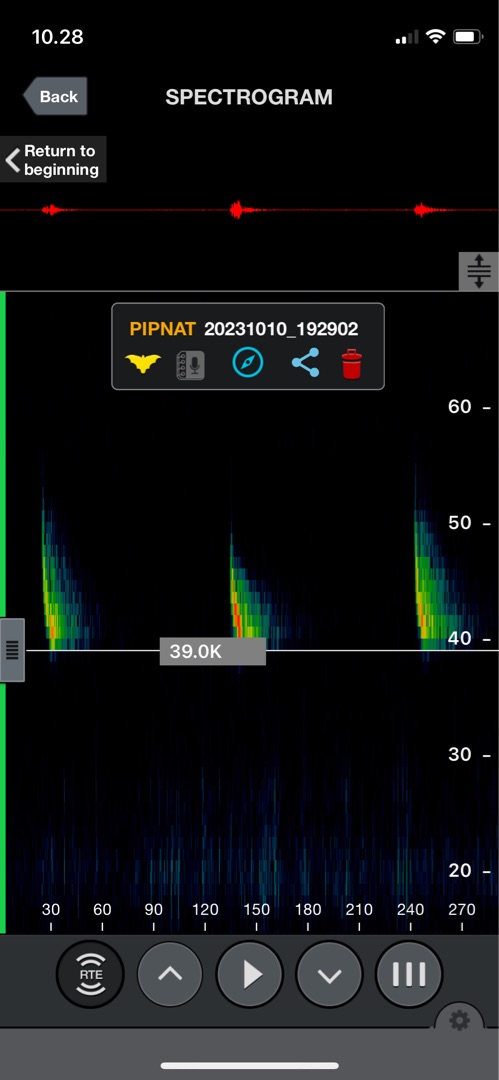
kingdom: Animalia
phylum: Chordata
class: Mammalia
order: Chiroptera
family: Vespertilionidae
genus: Pipistrellus
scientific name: Pipistrellus nathusii
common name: Troldflagermus
